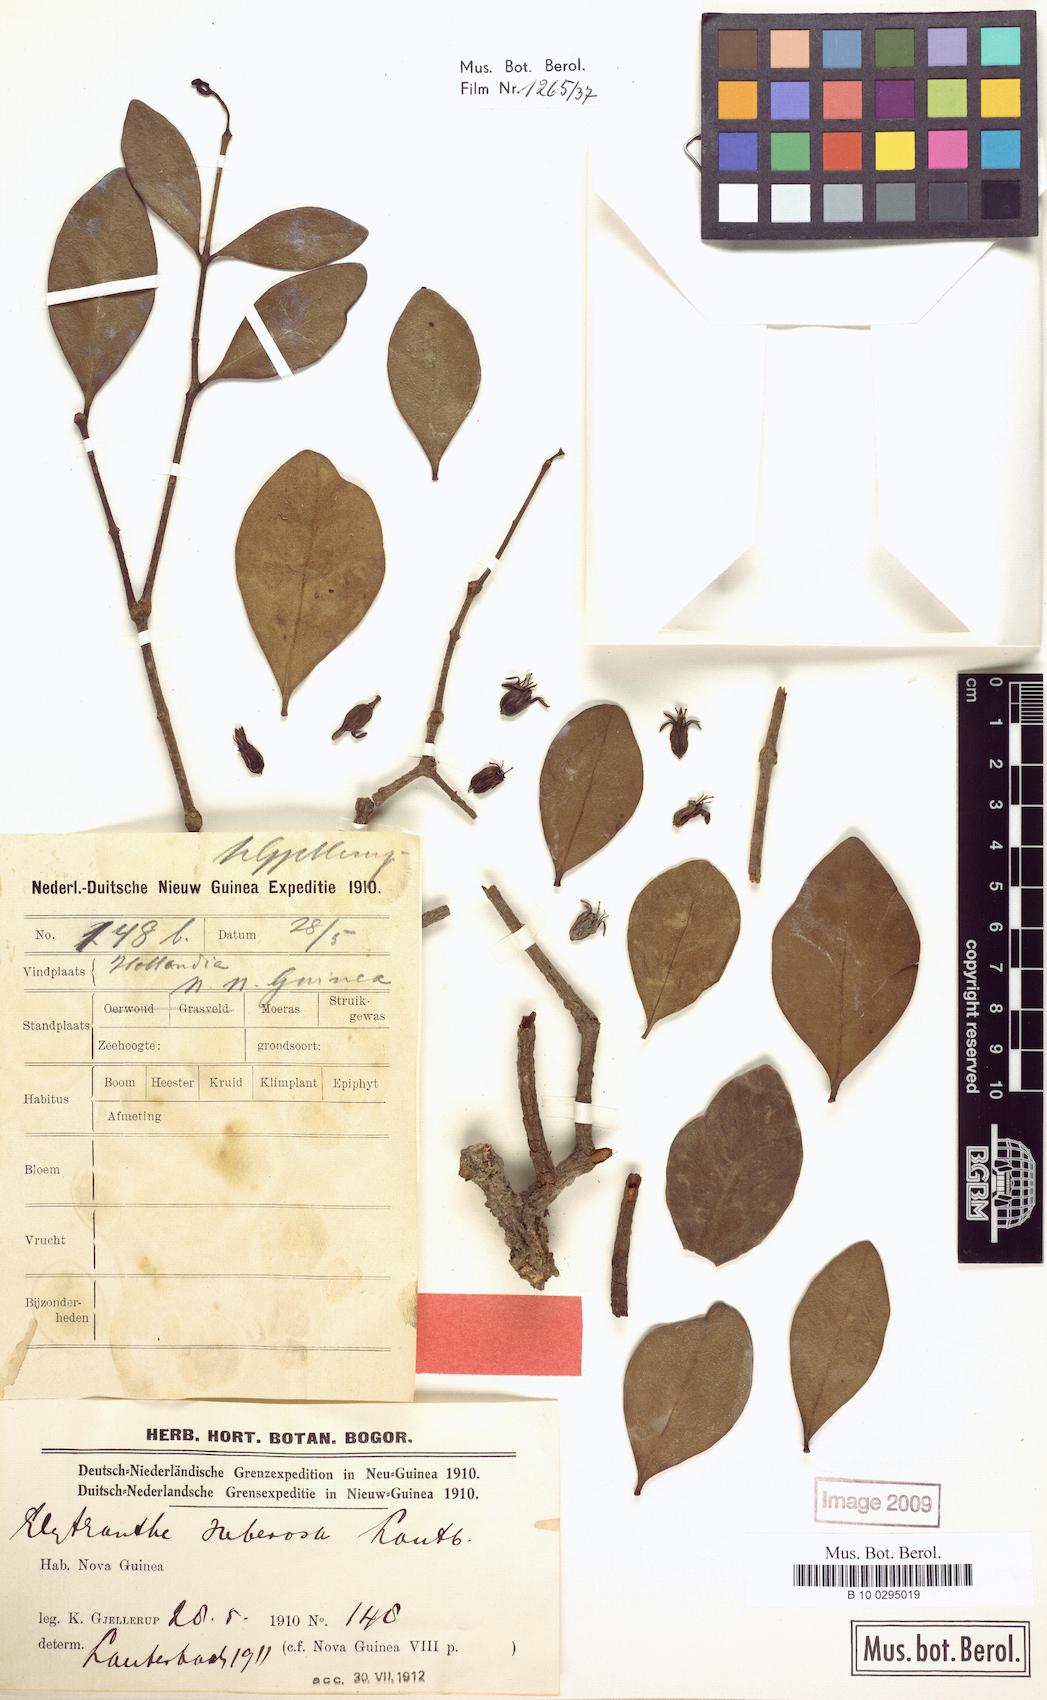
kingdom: Plantae
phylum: Tracheophyta
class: Magnoliopsida
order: Santalales
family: Loranthaceae
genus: Macrosolen
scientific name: Macrosolen cochinchinensis
